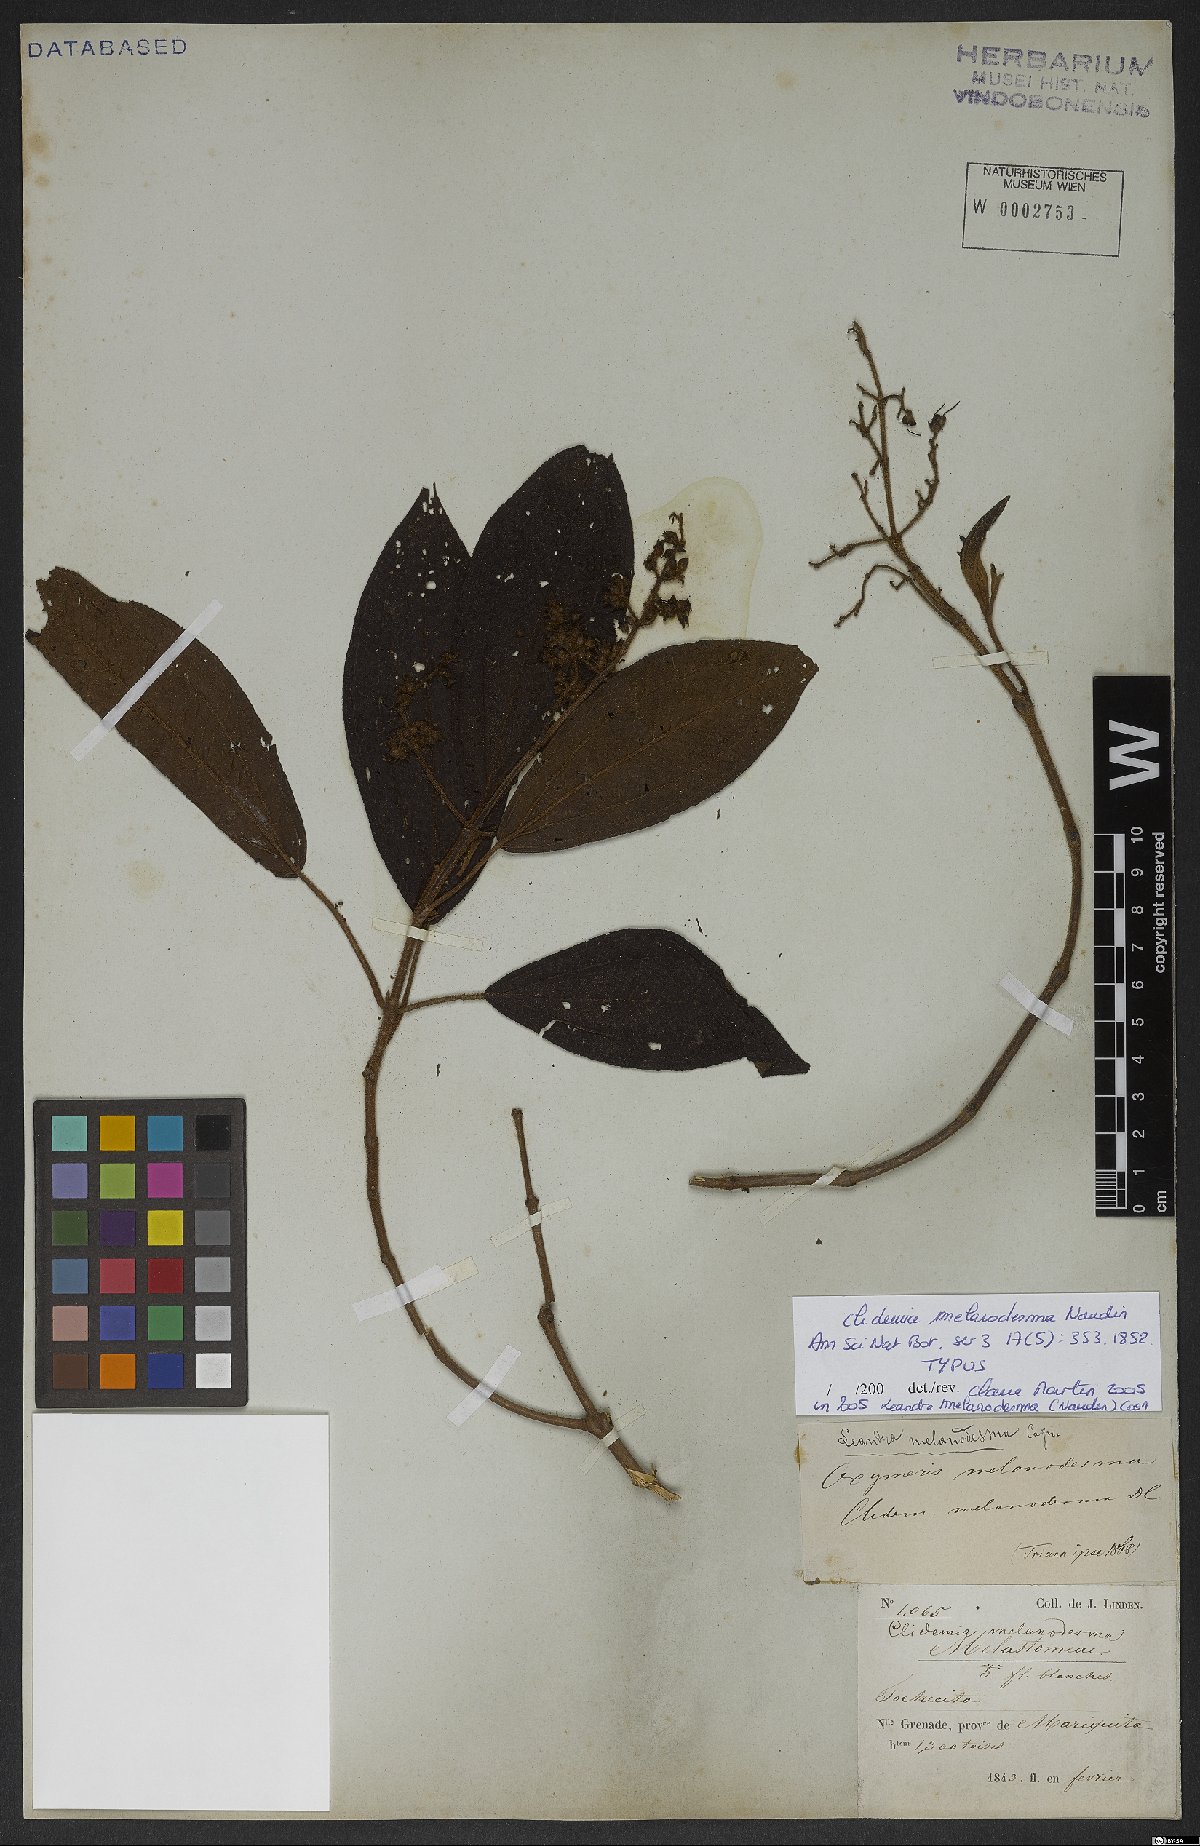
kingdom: Plantae
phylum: Tracheophyta
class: Magnoliopsida
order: Myrtales
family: Melastomataceae
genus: Miconia
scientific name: Miconia melanodesma
